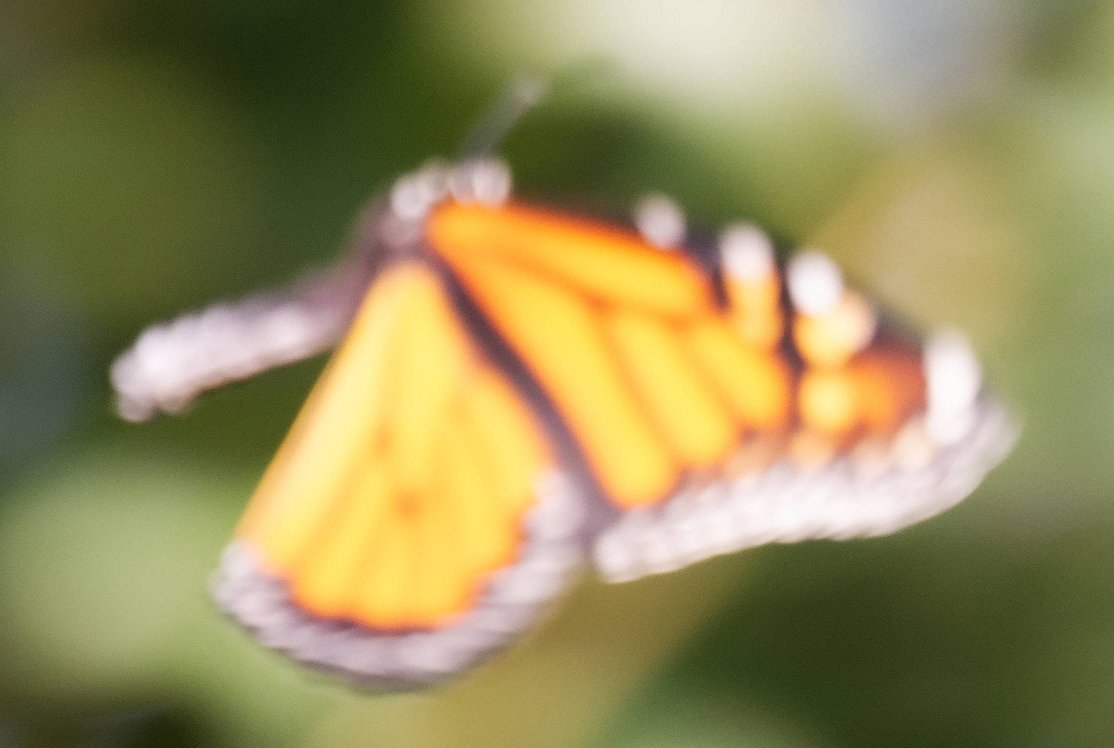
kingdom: Animalia
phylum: Arthropoda
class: Insecta
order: Lepidoptera
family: Nymphalidae
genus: Danaus
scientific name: Danaus plexippus
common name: Monarch
